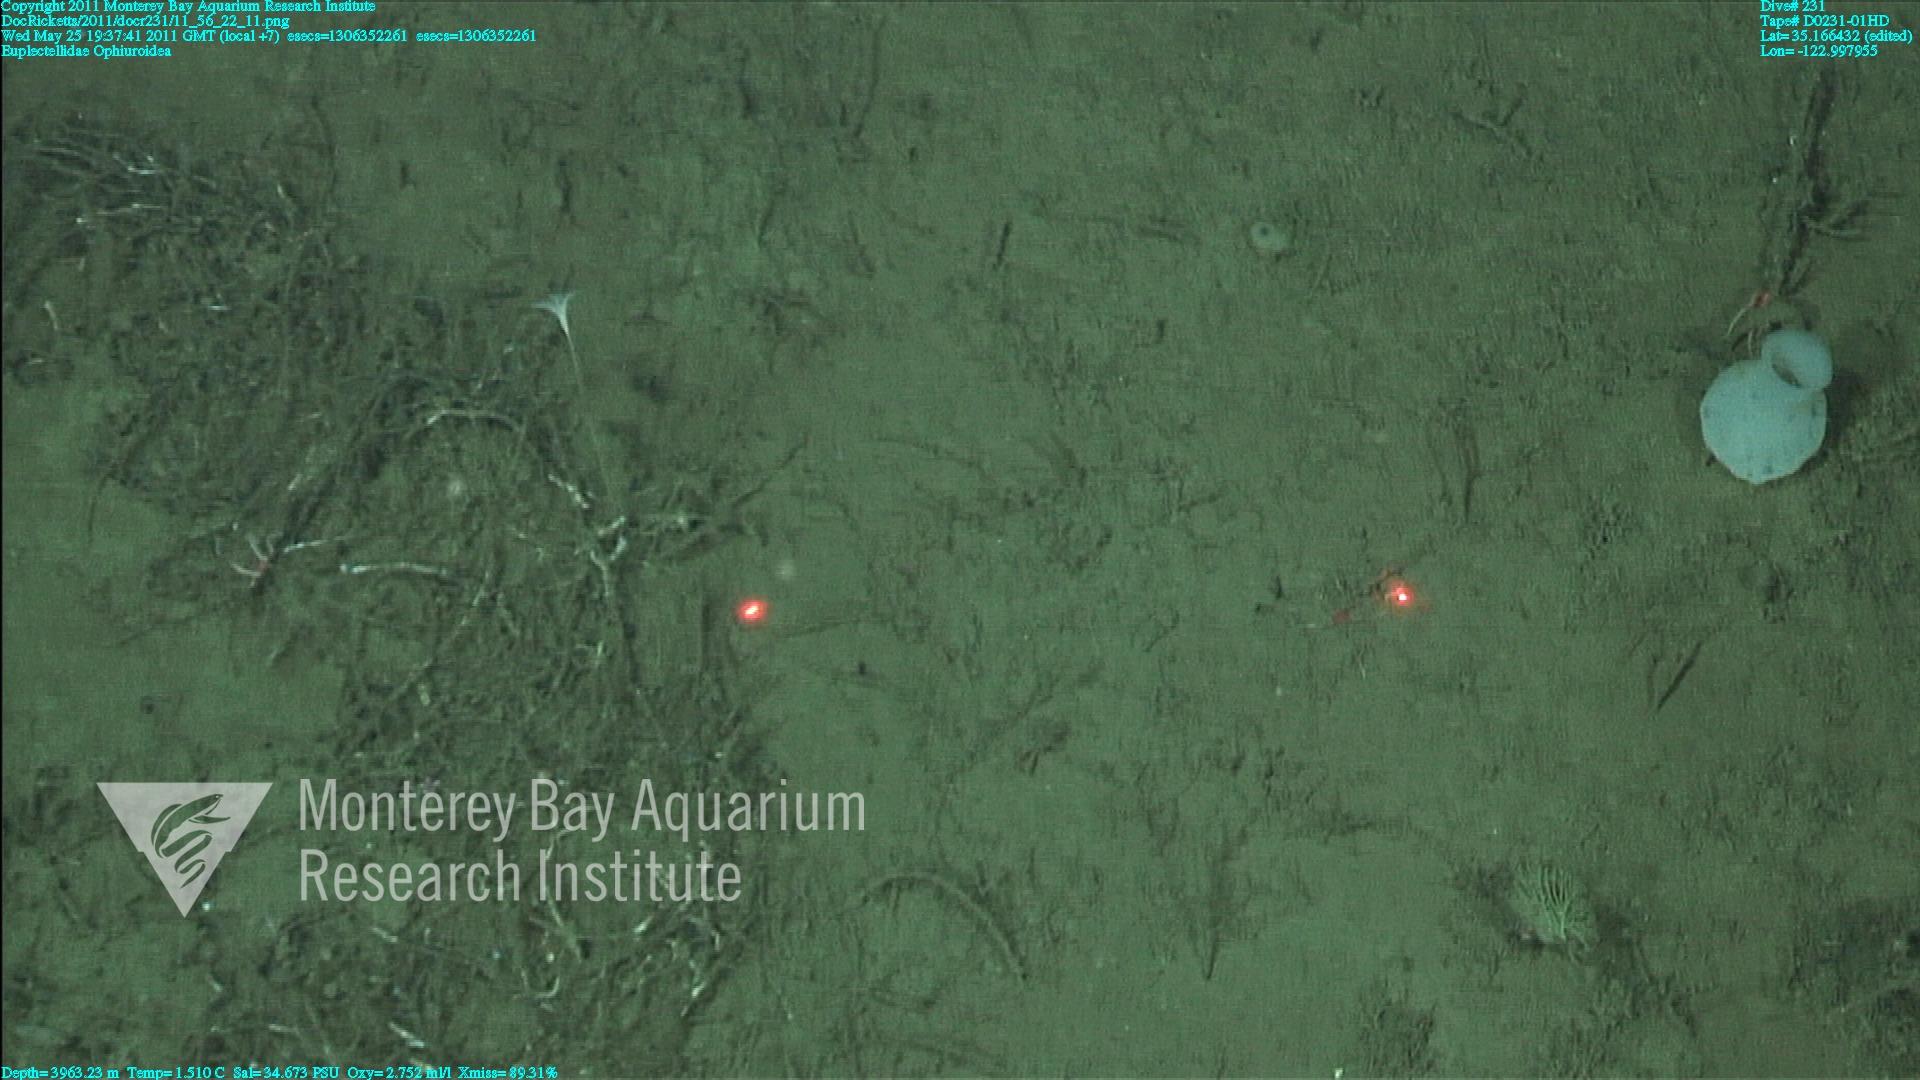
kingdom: Animalia
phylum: Porifera
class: Hexactinellida
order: Lyssacinosida
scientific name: Lyssacinosida
